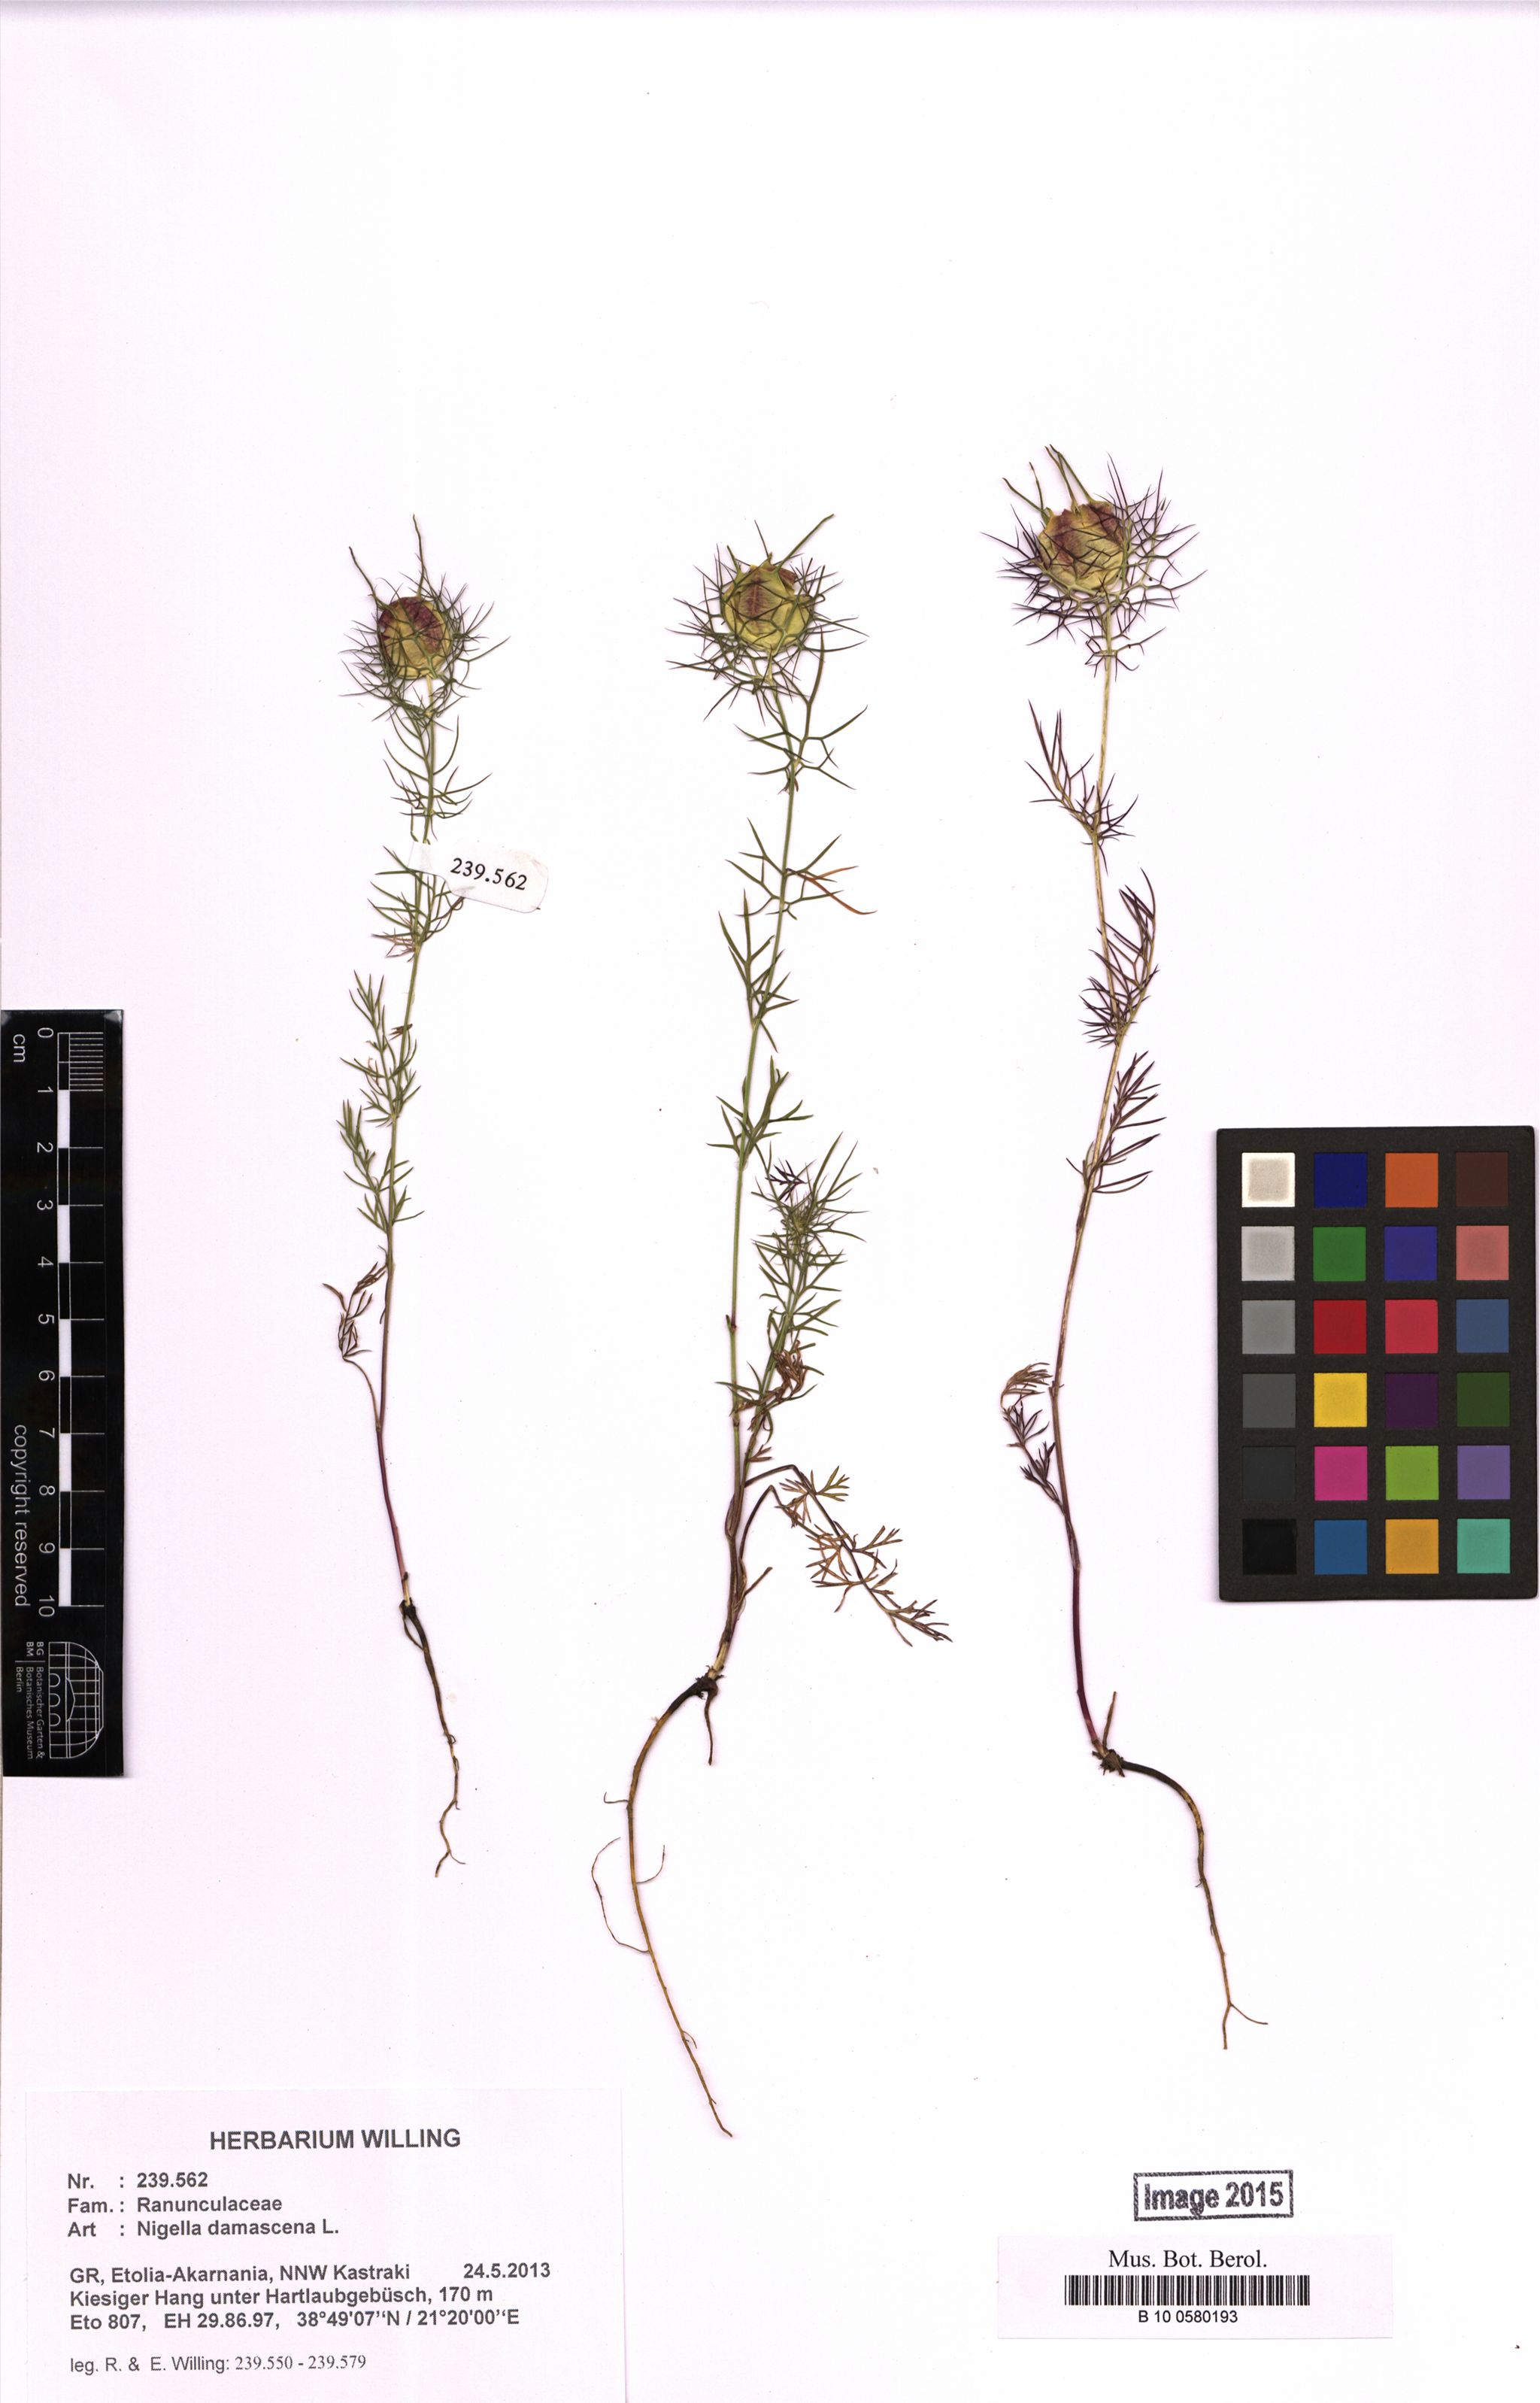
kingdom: Plantae
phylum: Tracheophyta
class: Magnoliopsida
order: Ranunculales
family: Ranunculaceae
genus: Nigella
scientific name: Nigella damascena
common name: Love-in-a-mist
